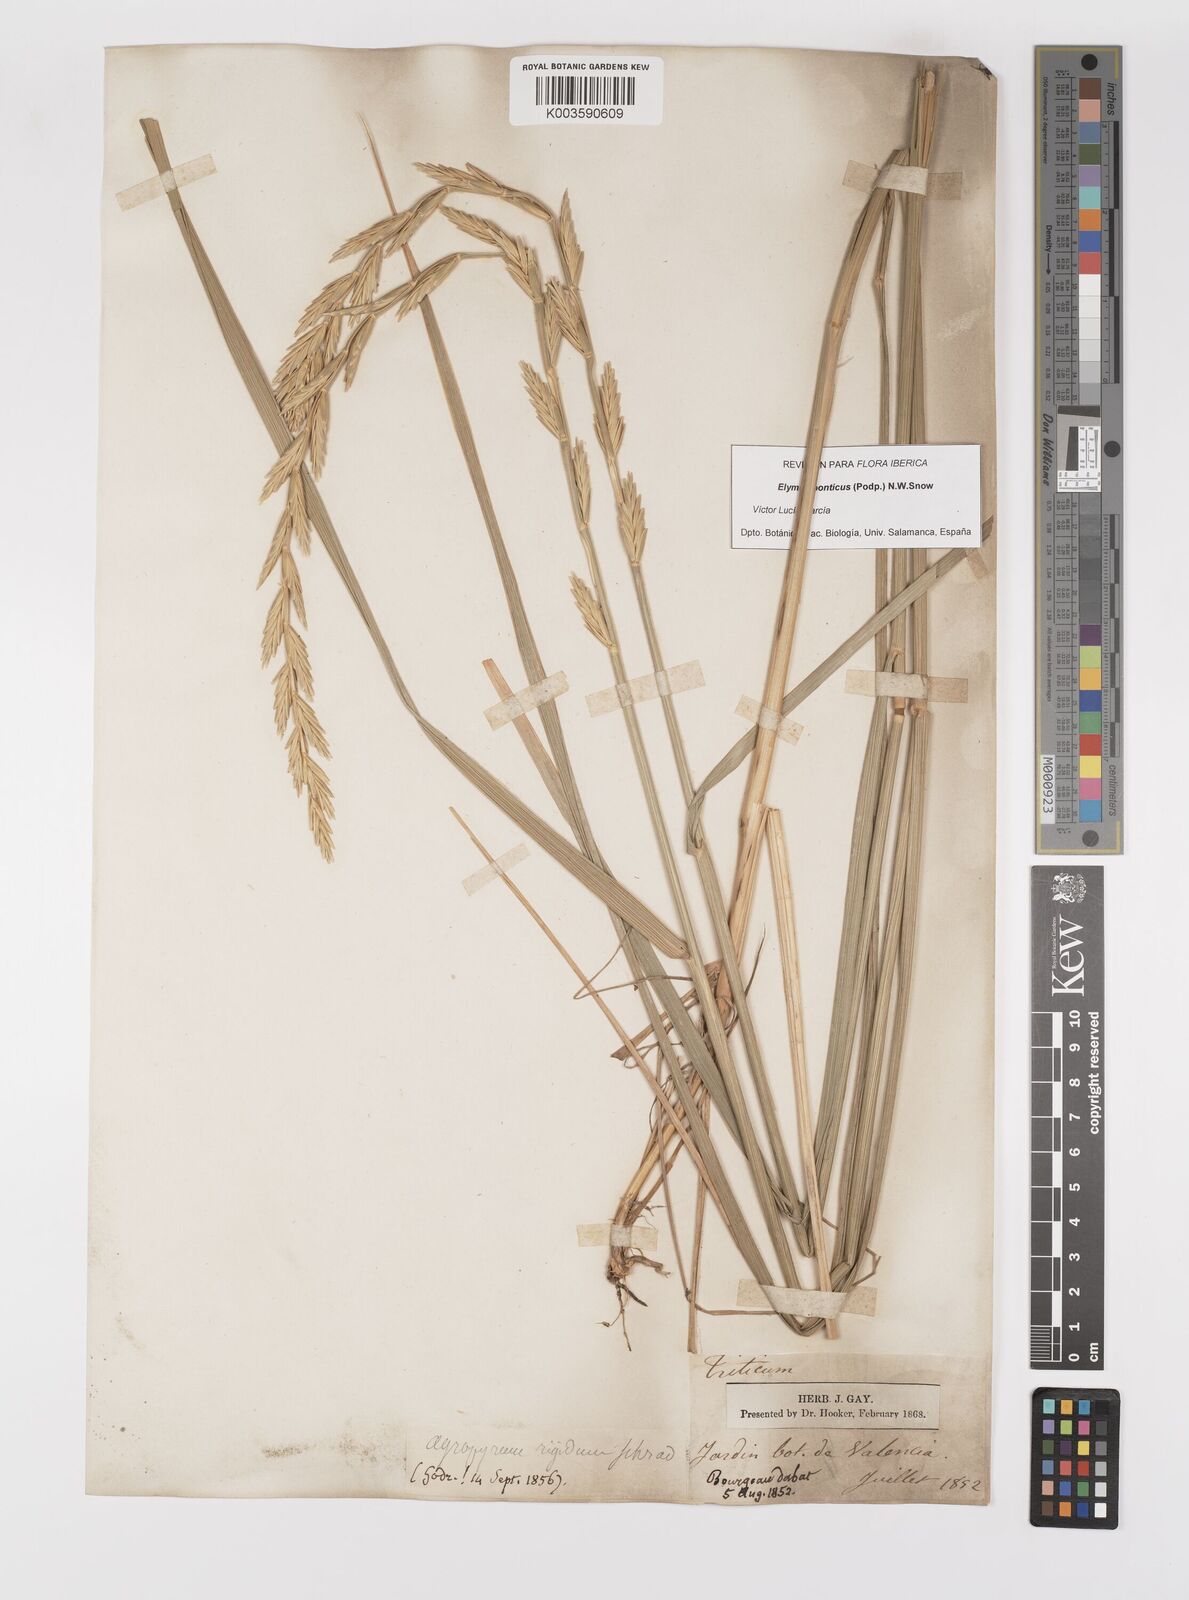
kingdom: Plantae
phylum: Tracheophyta
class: Liliopsida
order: Poales
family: Poaceae
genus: Thinopyrum
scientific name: Thinopyrum elongatum
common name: Tall wheatgrass
